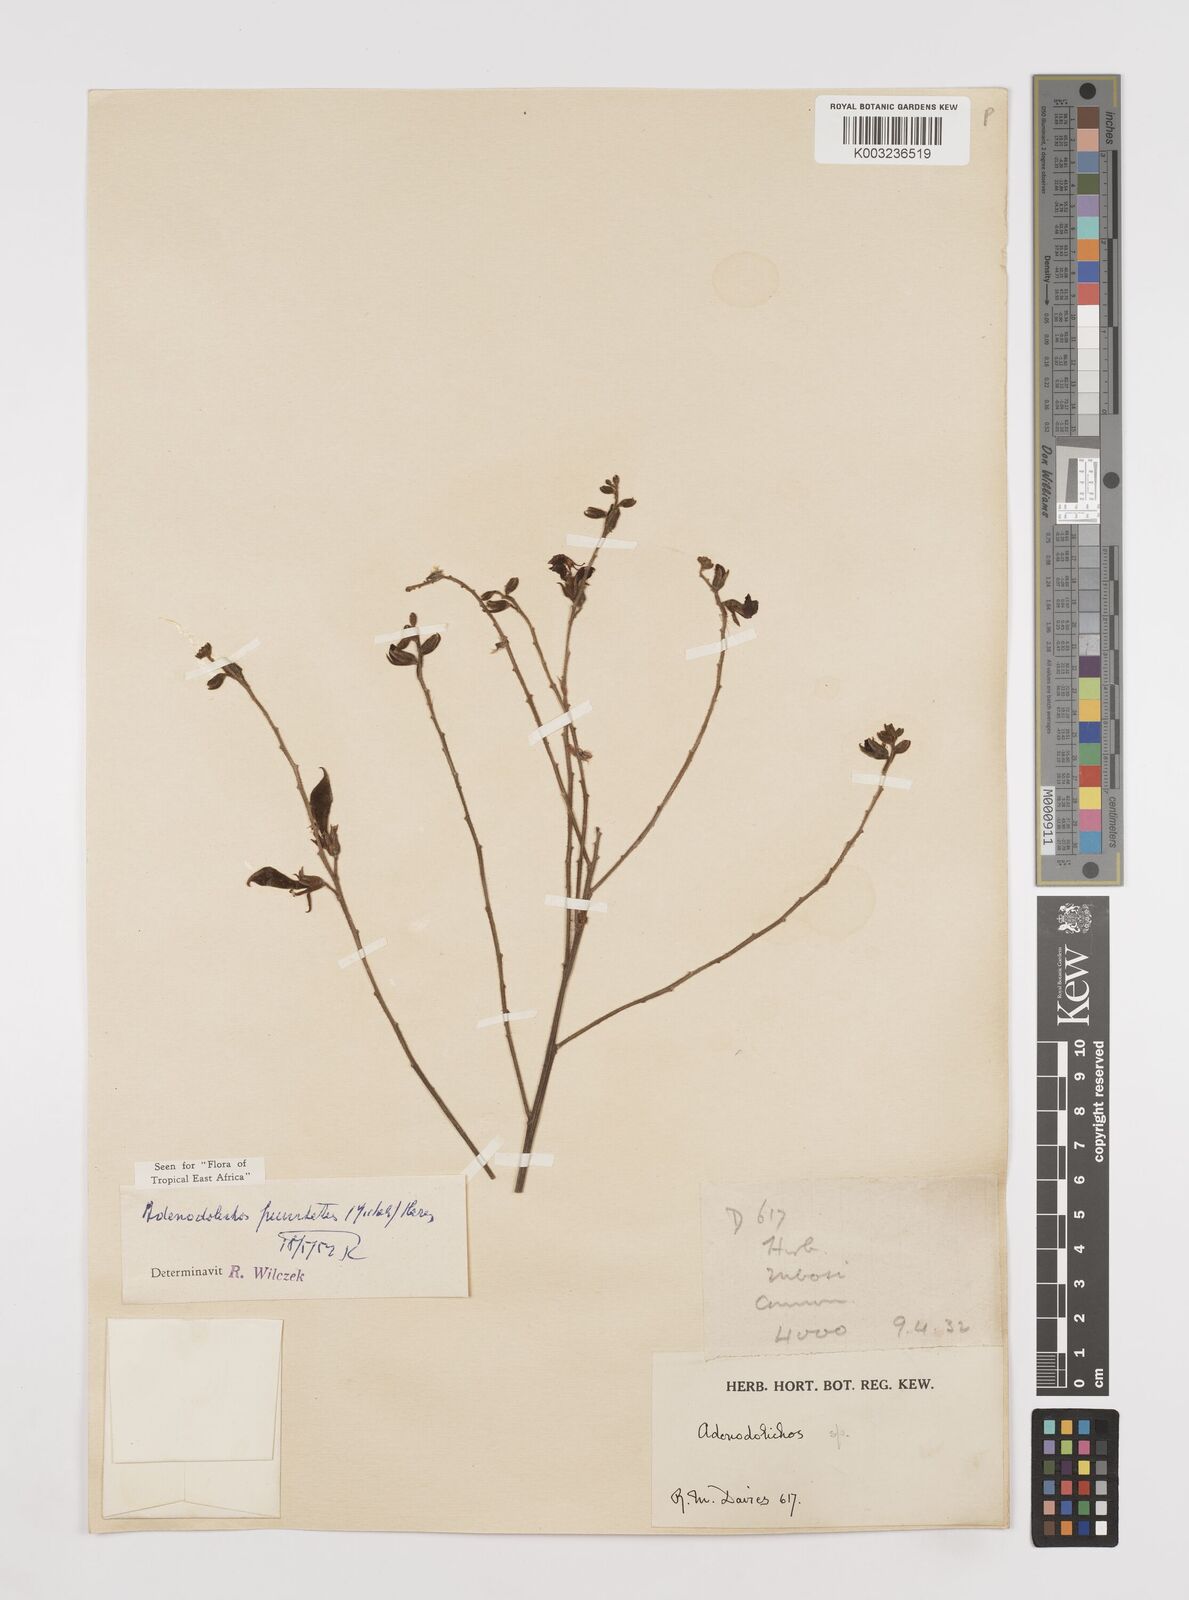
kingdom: Plantae
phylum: Tracheophyta
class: Magnoliopsida
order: Fabales
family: Fabaceae
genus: Adenodolichos
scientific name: Adenodolichos punctatus
